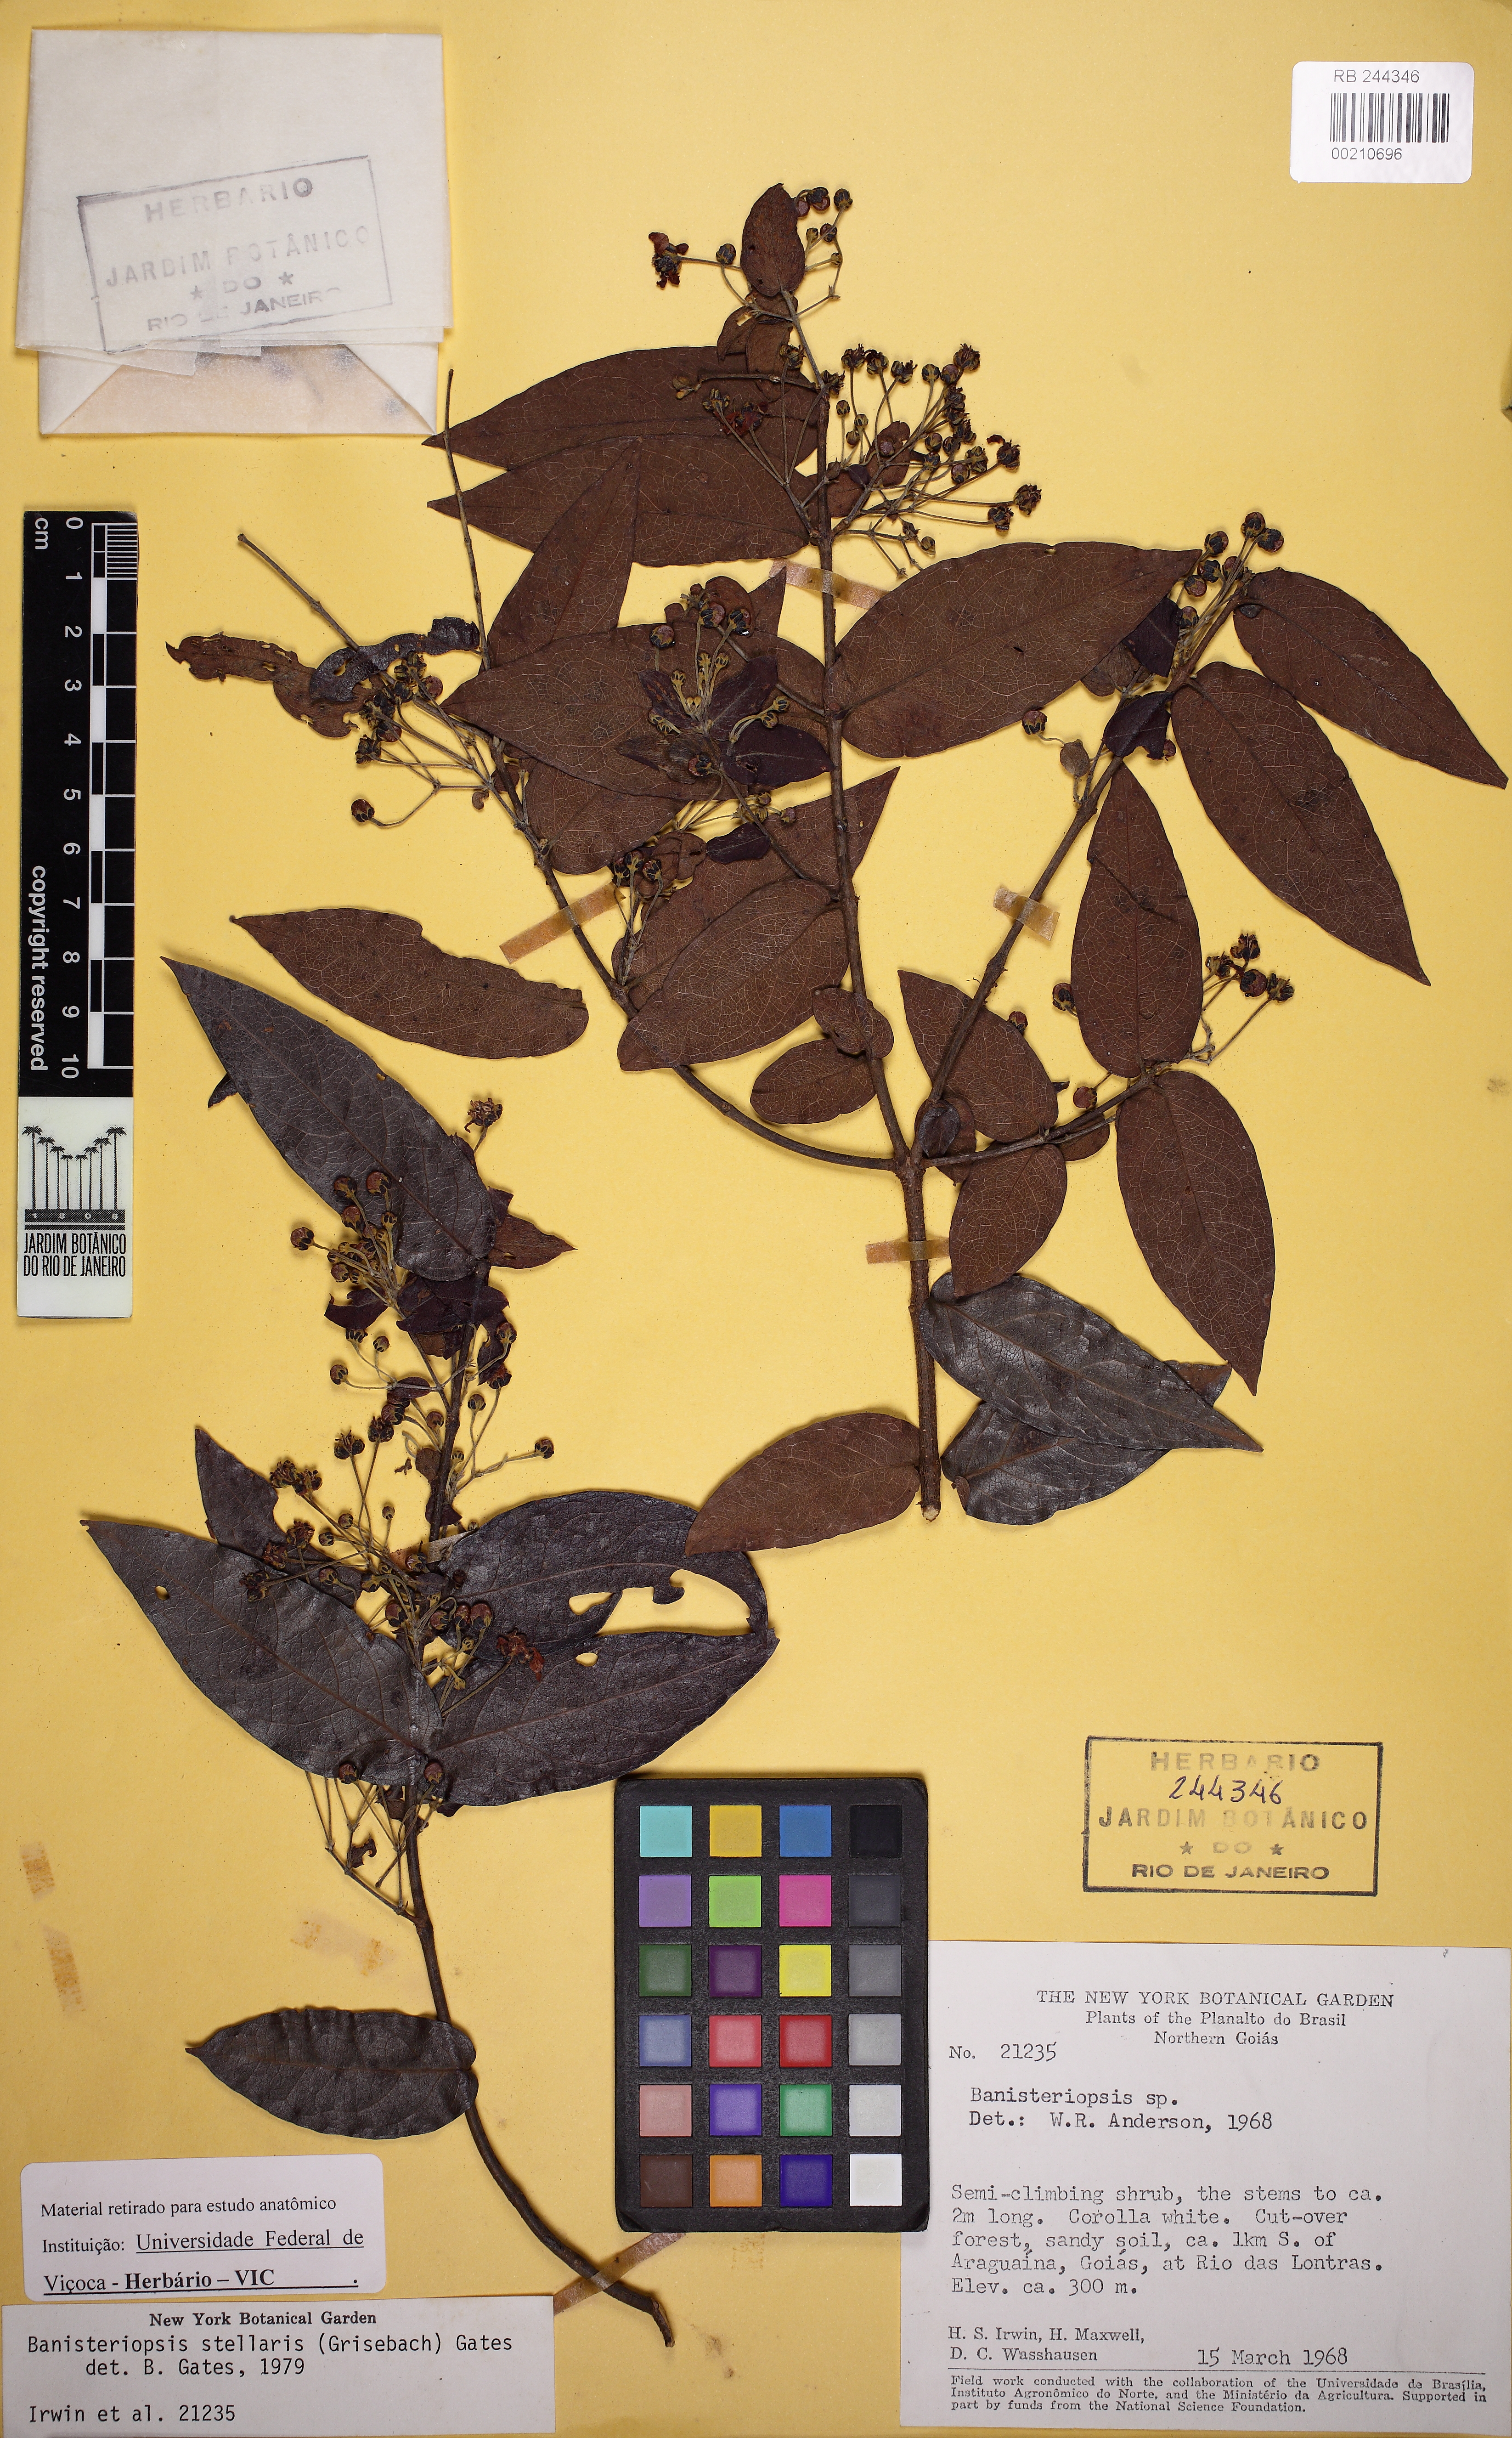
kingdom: Plantae
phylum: Tracheophyta
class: Magnoliopsida
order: Malpighiales
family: Malpighiaceae
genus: Banisteriopsis
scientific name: Banisteriopsis stellaris
